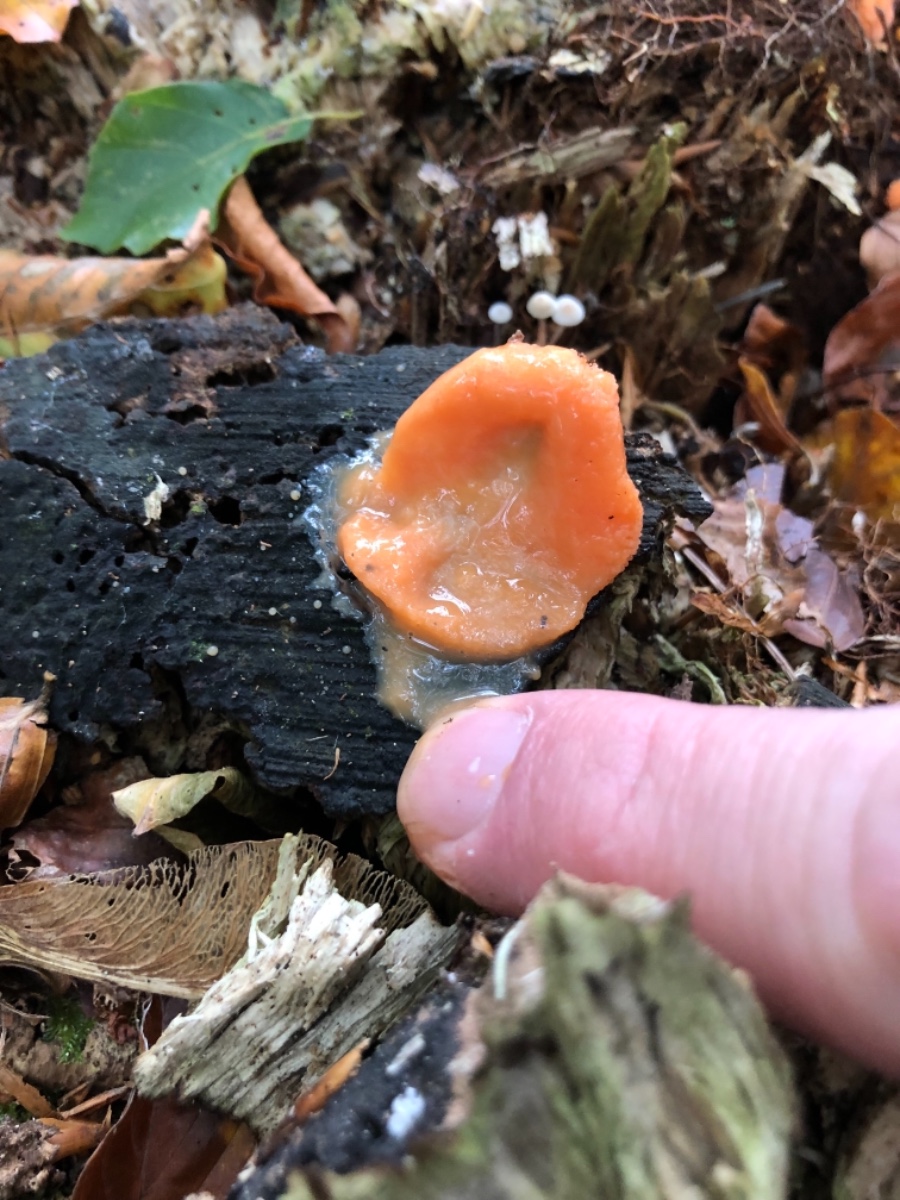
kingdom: Protozoa
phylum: Mycetozoa
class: Myxomycetes
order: Cribrariales
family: Tubiferaceae
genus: Tubifera
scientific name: Tubifera ferruginosa
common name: kanel-støvrør
